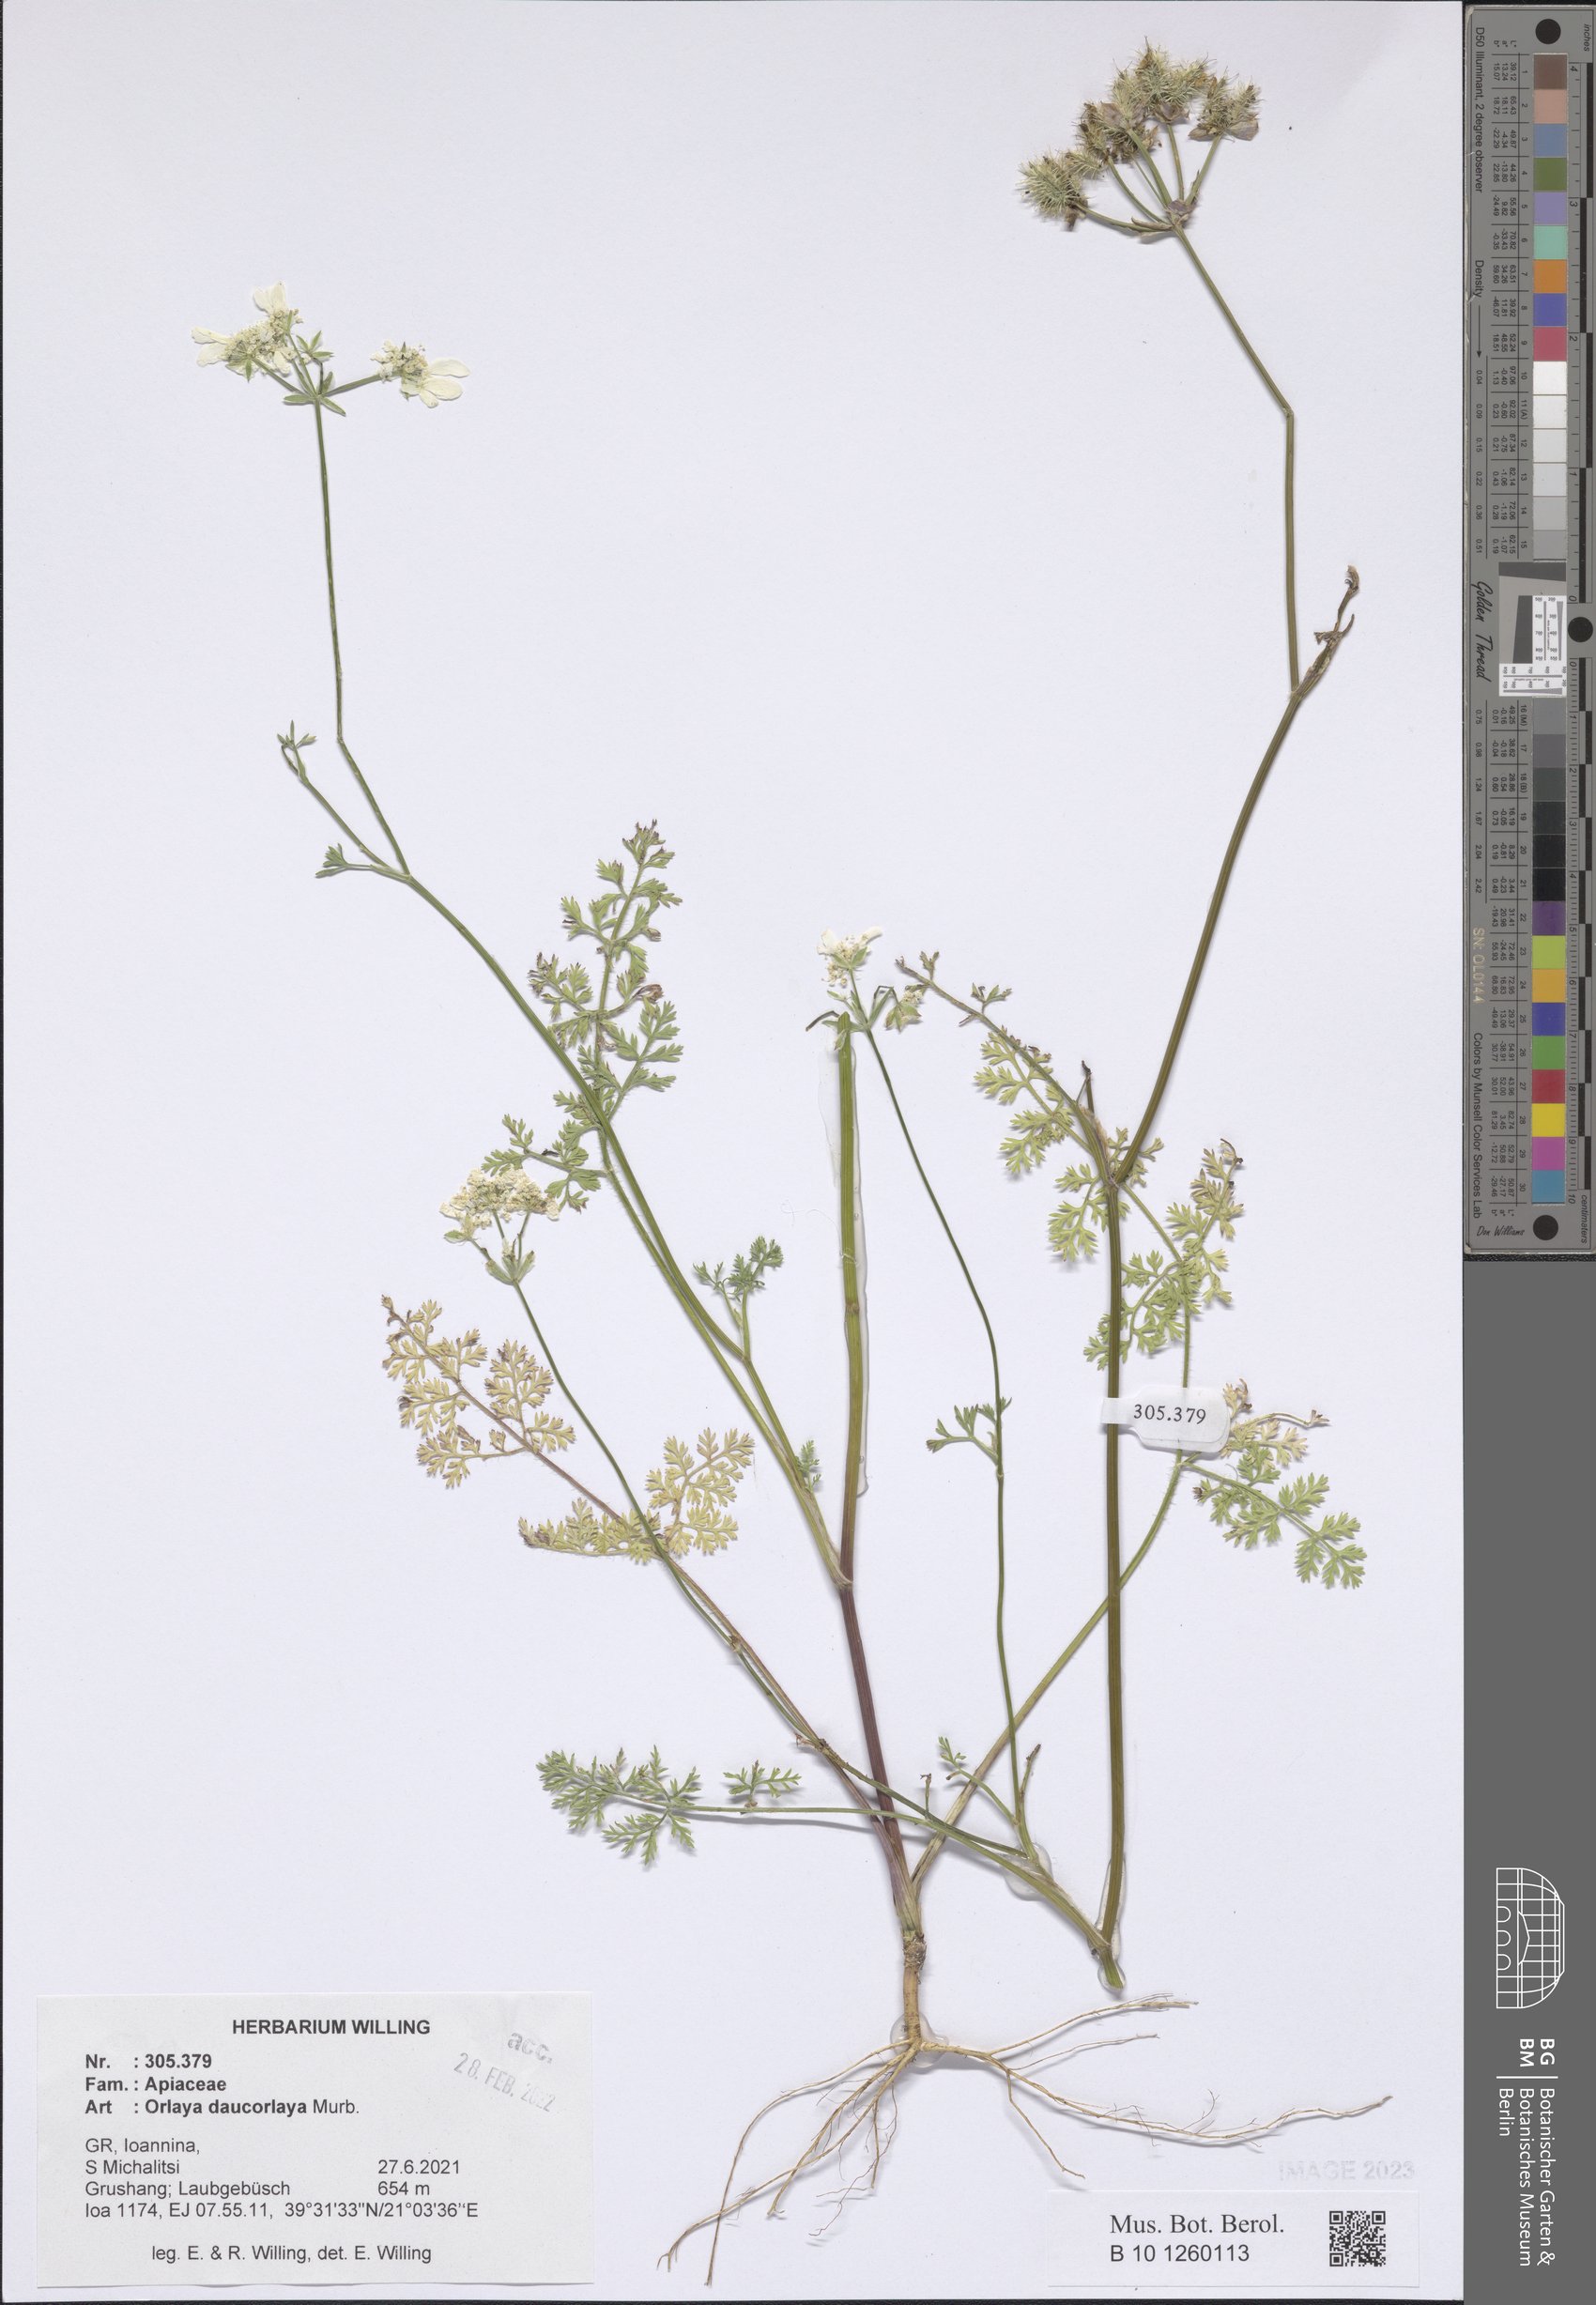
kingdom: Plantae
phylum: Tracheophyta
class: Magnoliopsida
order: Apiales
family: Apiaceae
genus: Orlaya
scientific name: Orlaya daucorlaya
